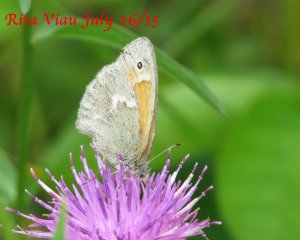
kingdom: Animalia
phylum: Arthropoda
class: Insecta
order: Lepidoptera
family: Nymphalidae
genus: Coenonympha
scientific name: Coenonympha tullia
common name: Large Heath
